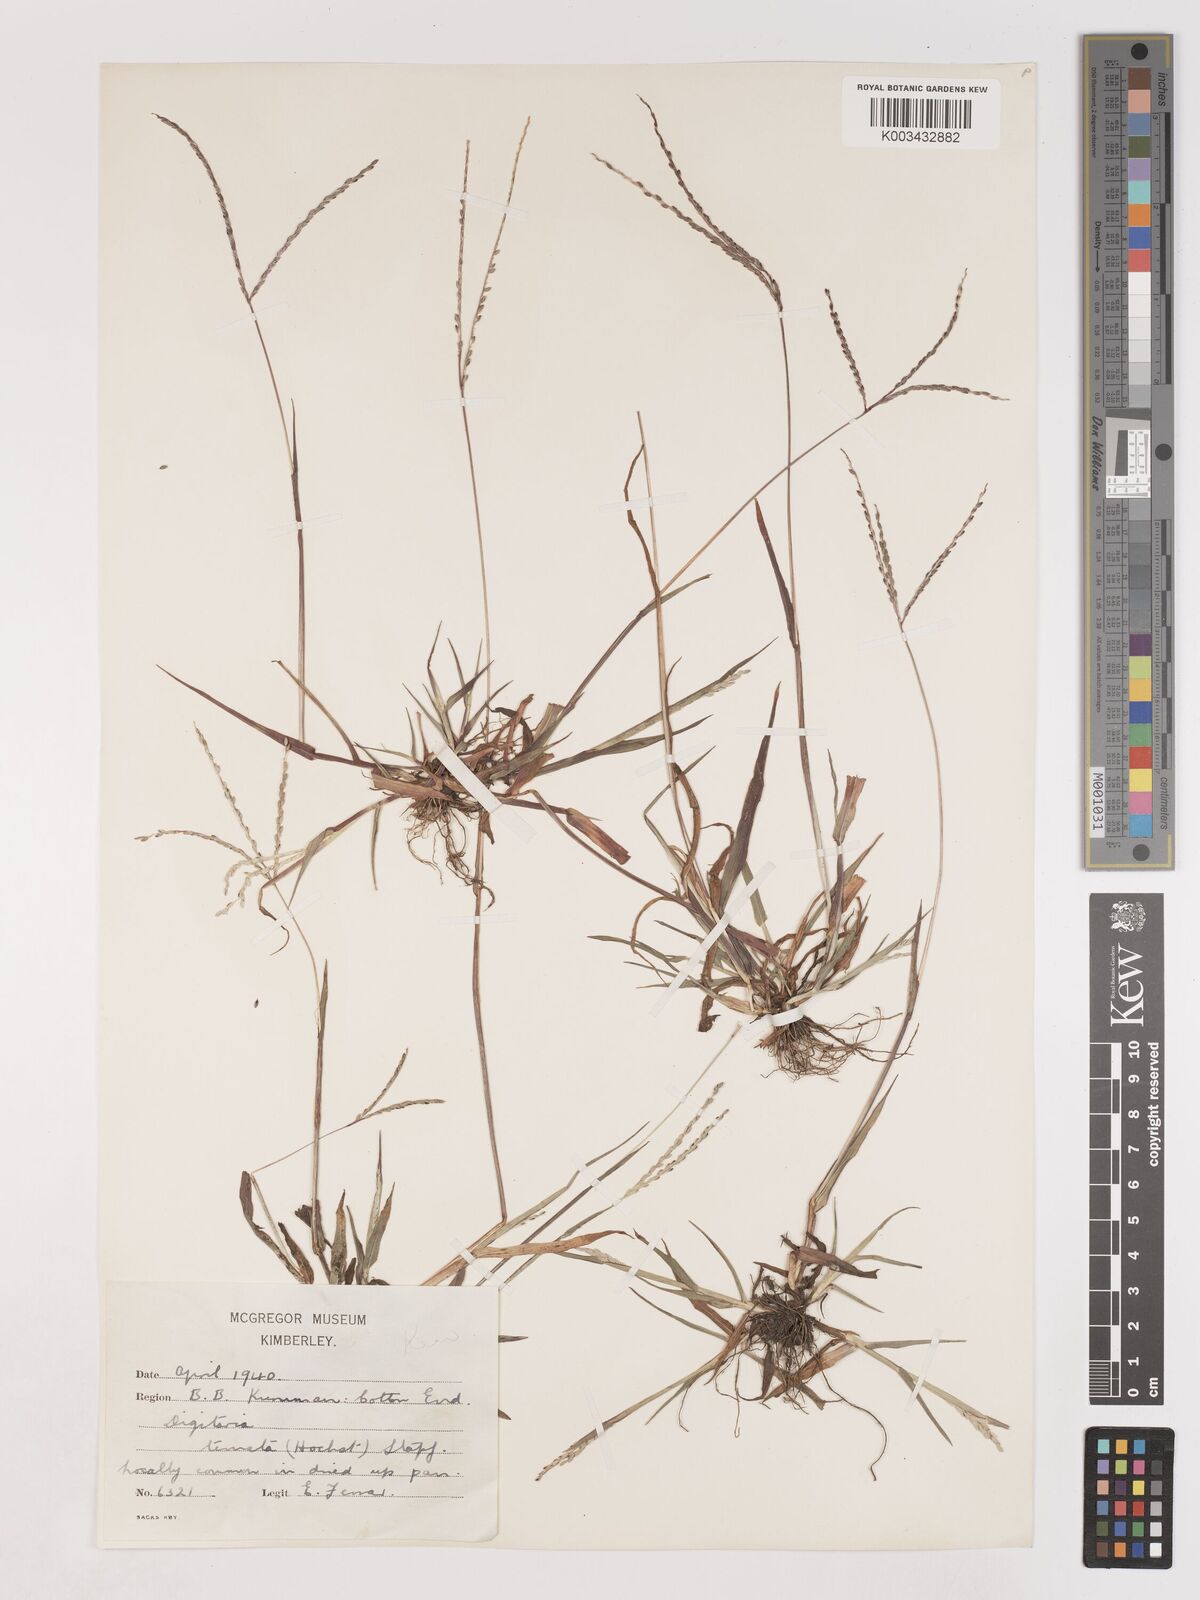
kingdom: Plantae
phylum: Tracheophyta
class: Liliopsida
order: Poales
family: Poaceae
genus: Digitaria
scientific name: Digitaria ternata
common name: Blackseed crabgrass
